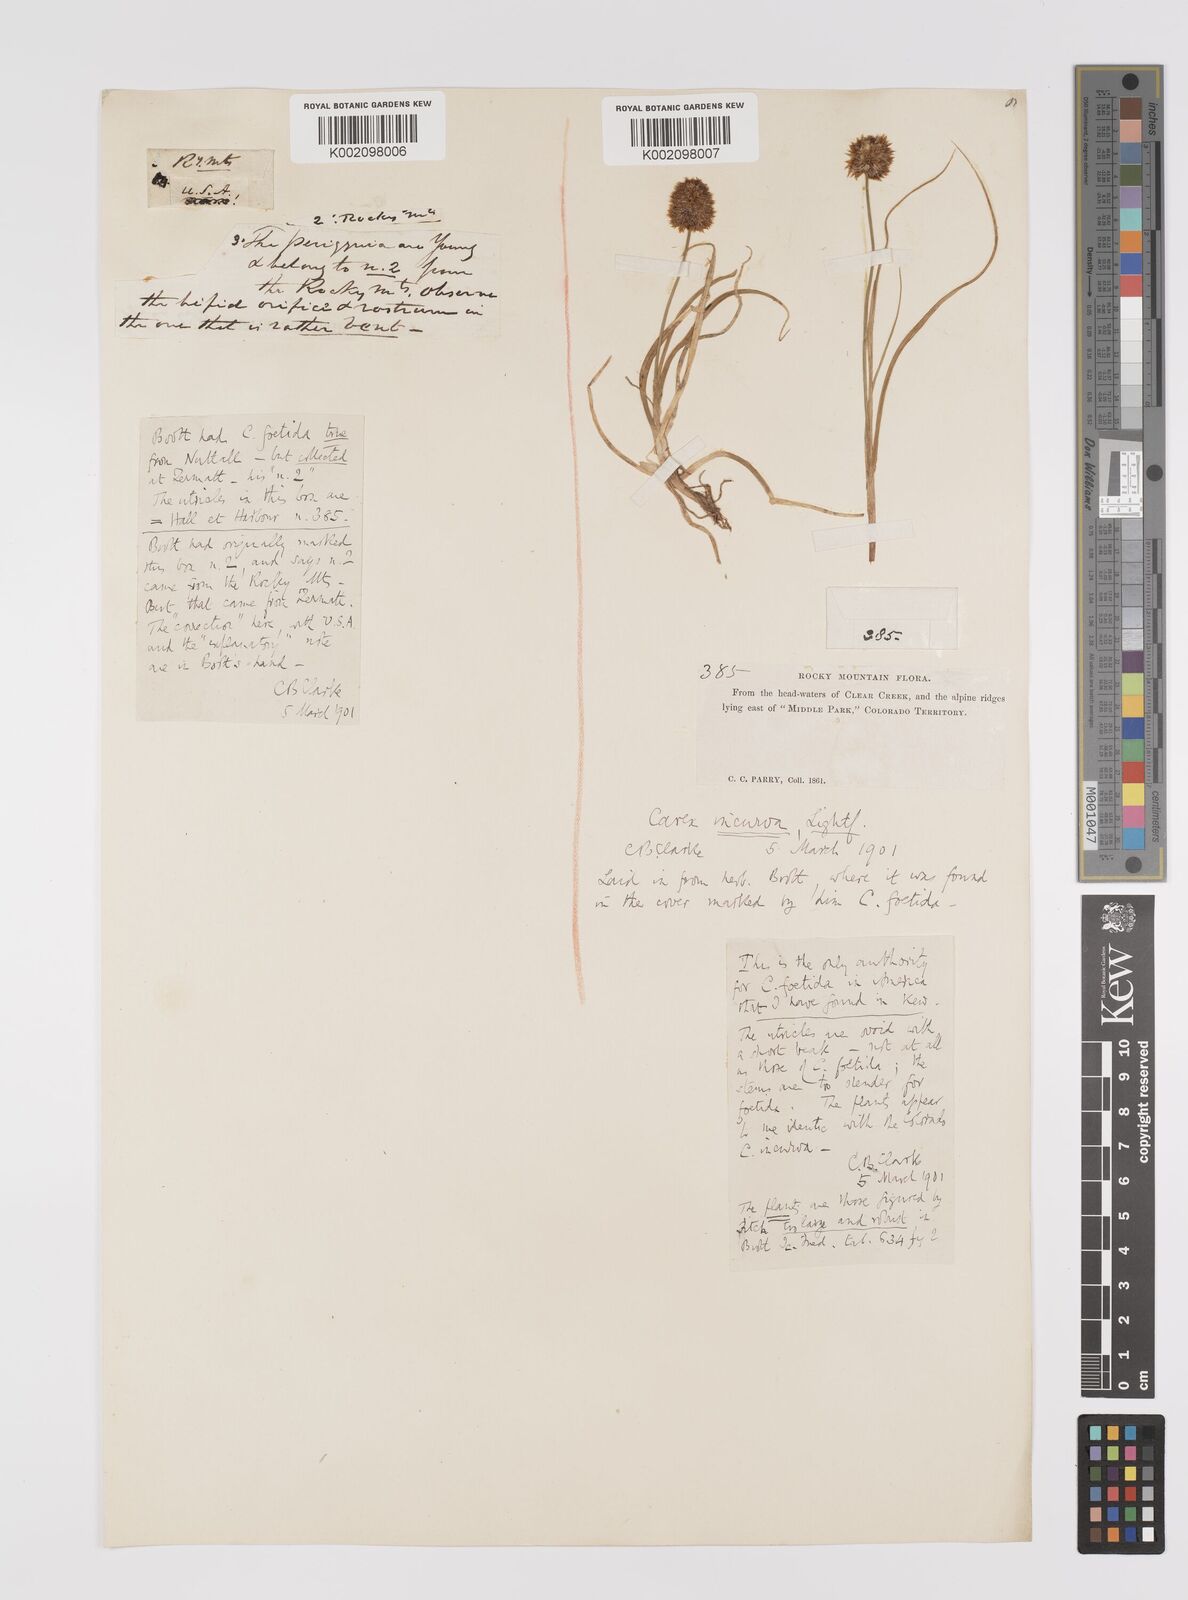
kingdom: Plantae
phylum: Tracheophyta
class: Liliopsida
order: Poales
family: Cyperaceae
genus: Carex
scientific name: Carex maritima
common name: Curved sedge
